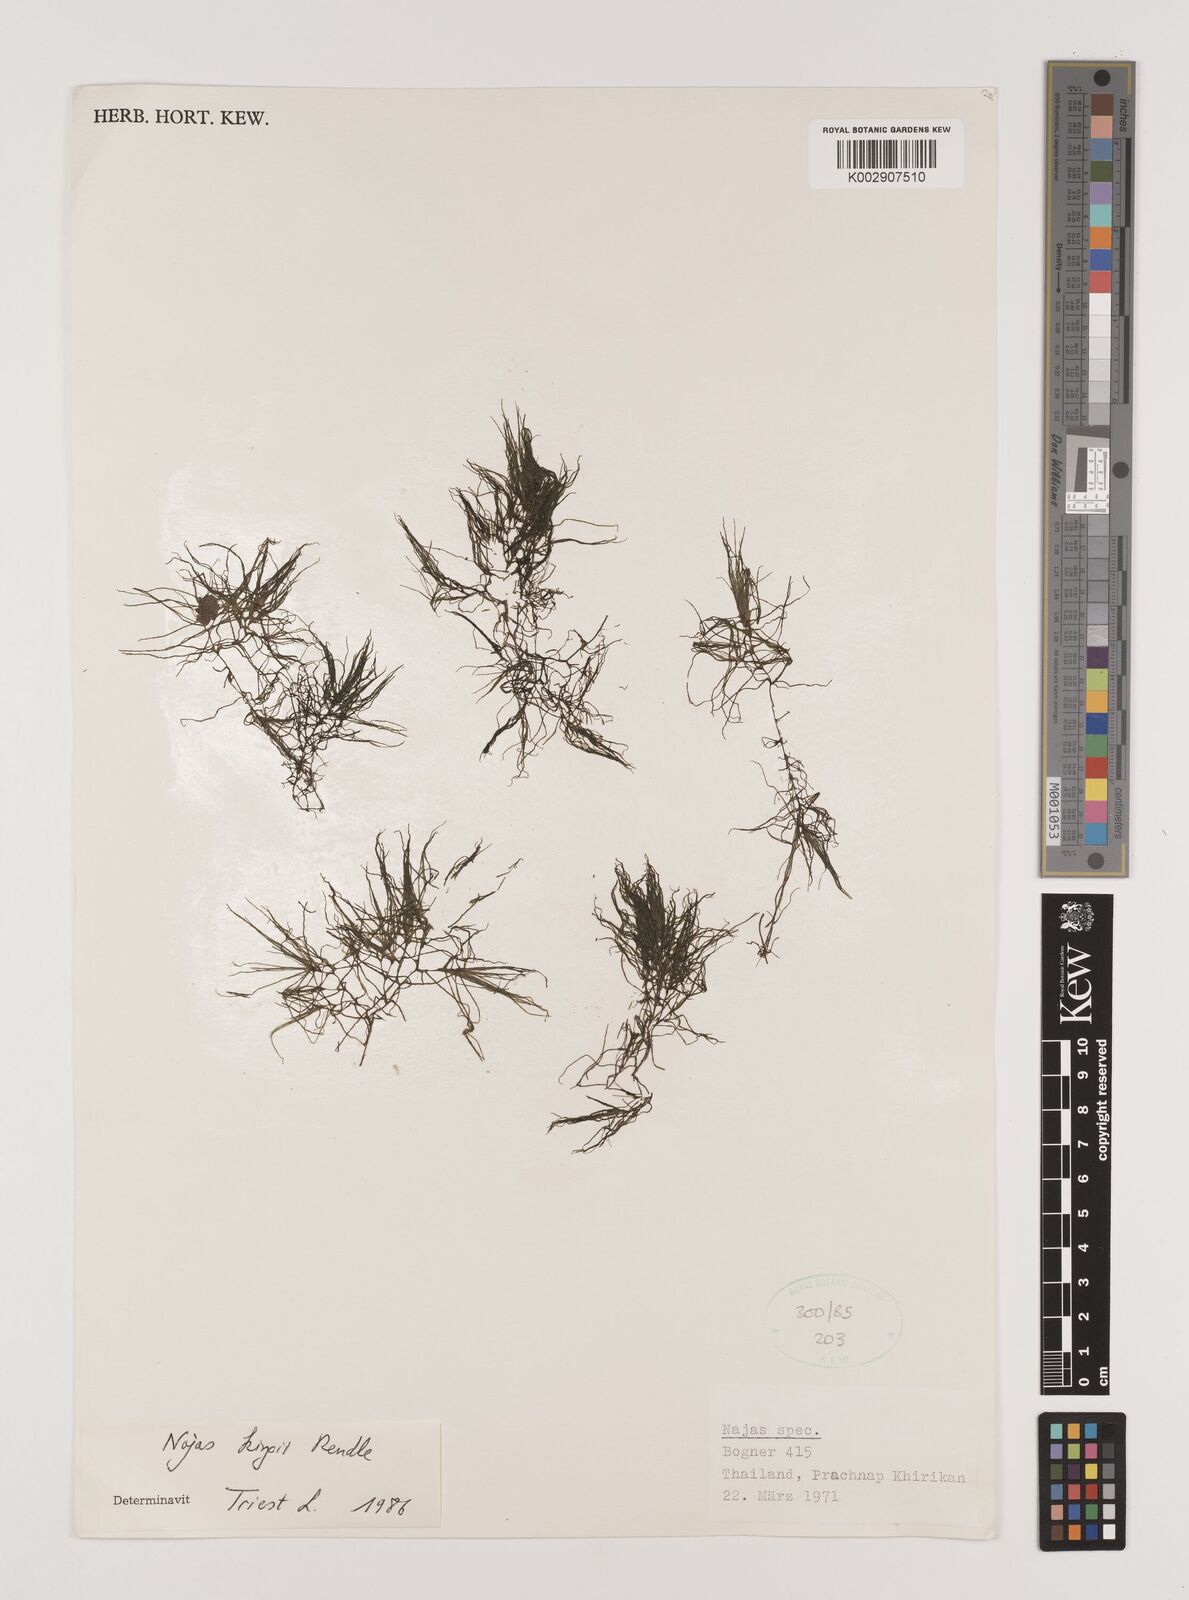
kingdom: Plantae
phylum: Tracheophyta
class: Liliopsida
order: Alismatales
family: Hydrocharitaceae
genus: Najas
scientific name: Najas indica
